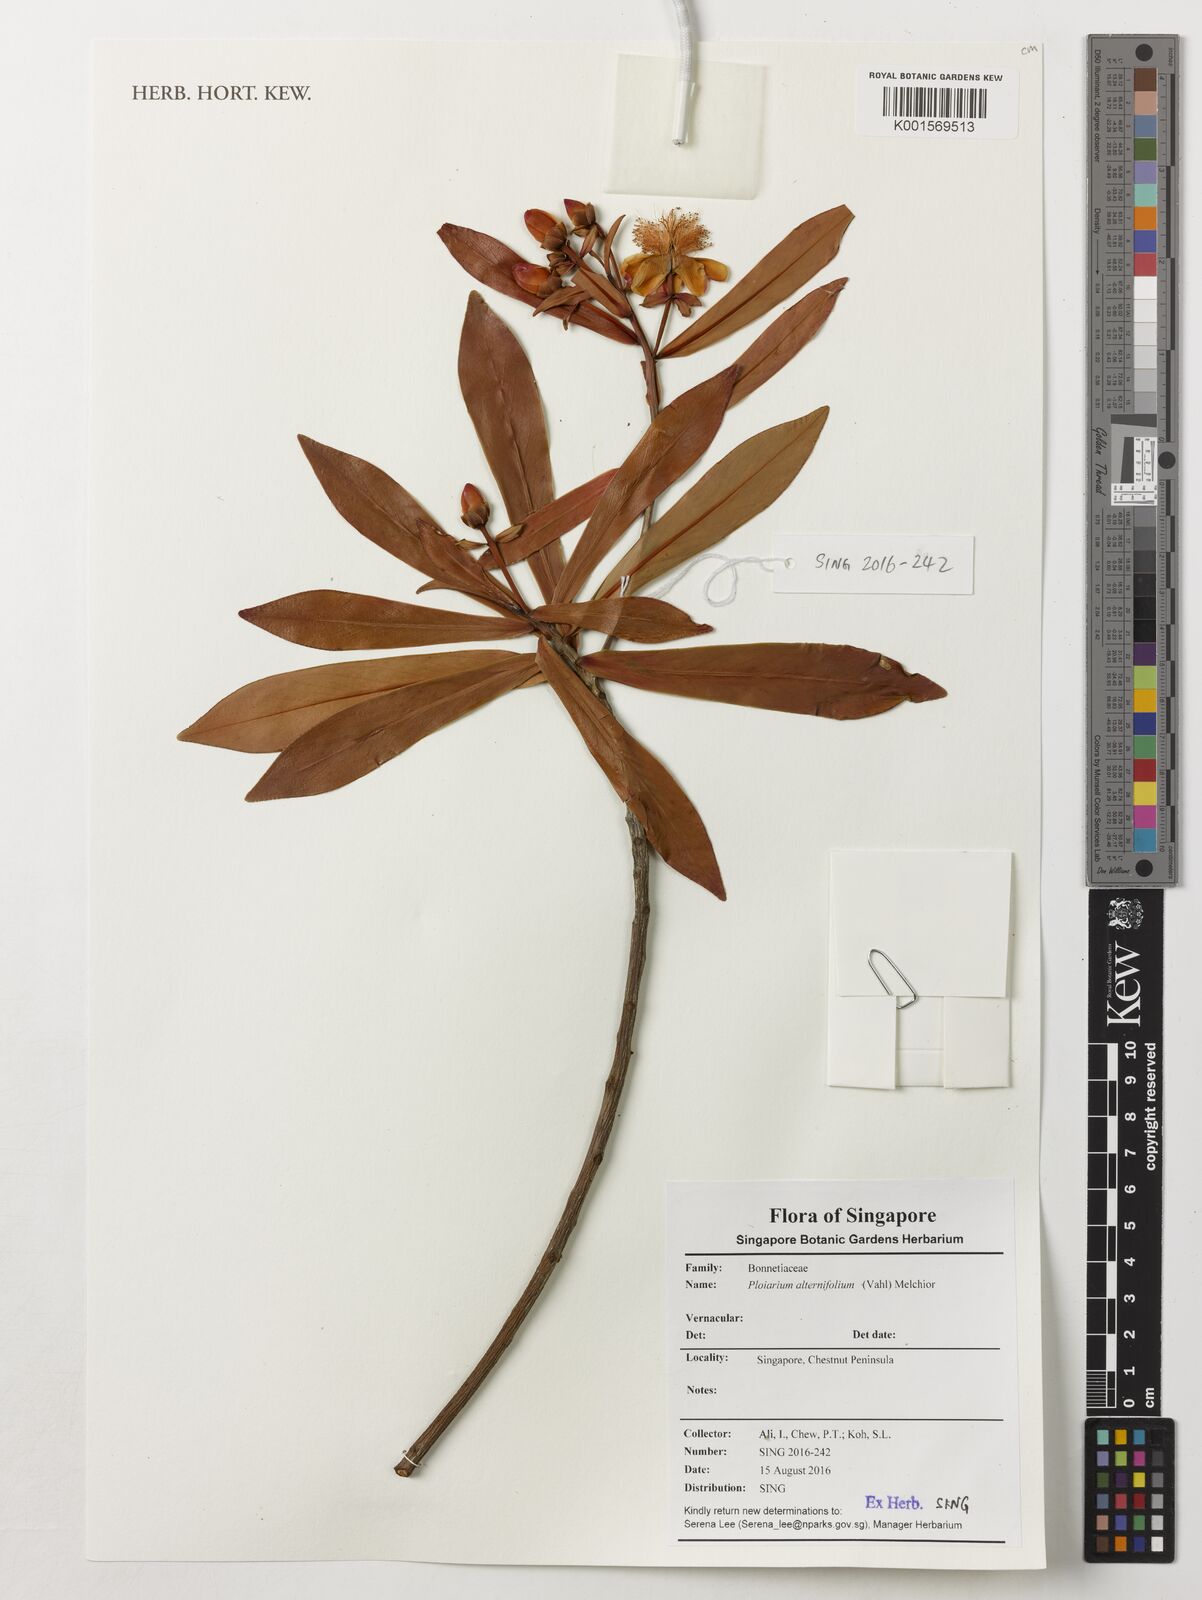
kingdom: Plantae
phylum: Tracheophyta
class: Magnoliopsida
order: Malpighiales
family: Bonnetiaceae
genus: Ploiarium
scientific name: Ploiarium alternifolium
